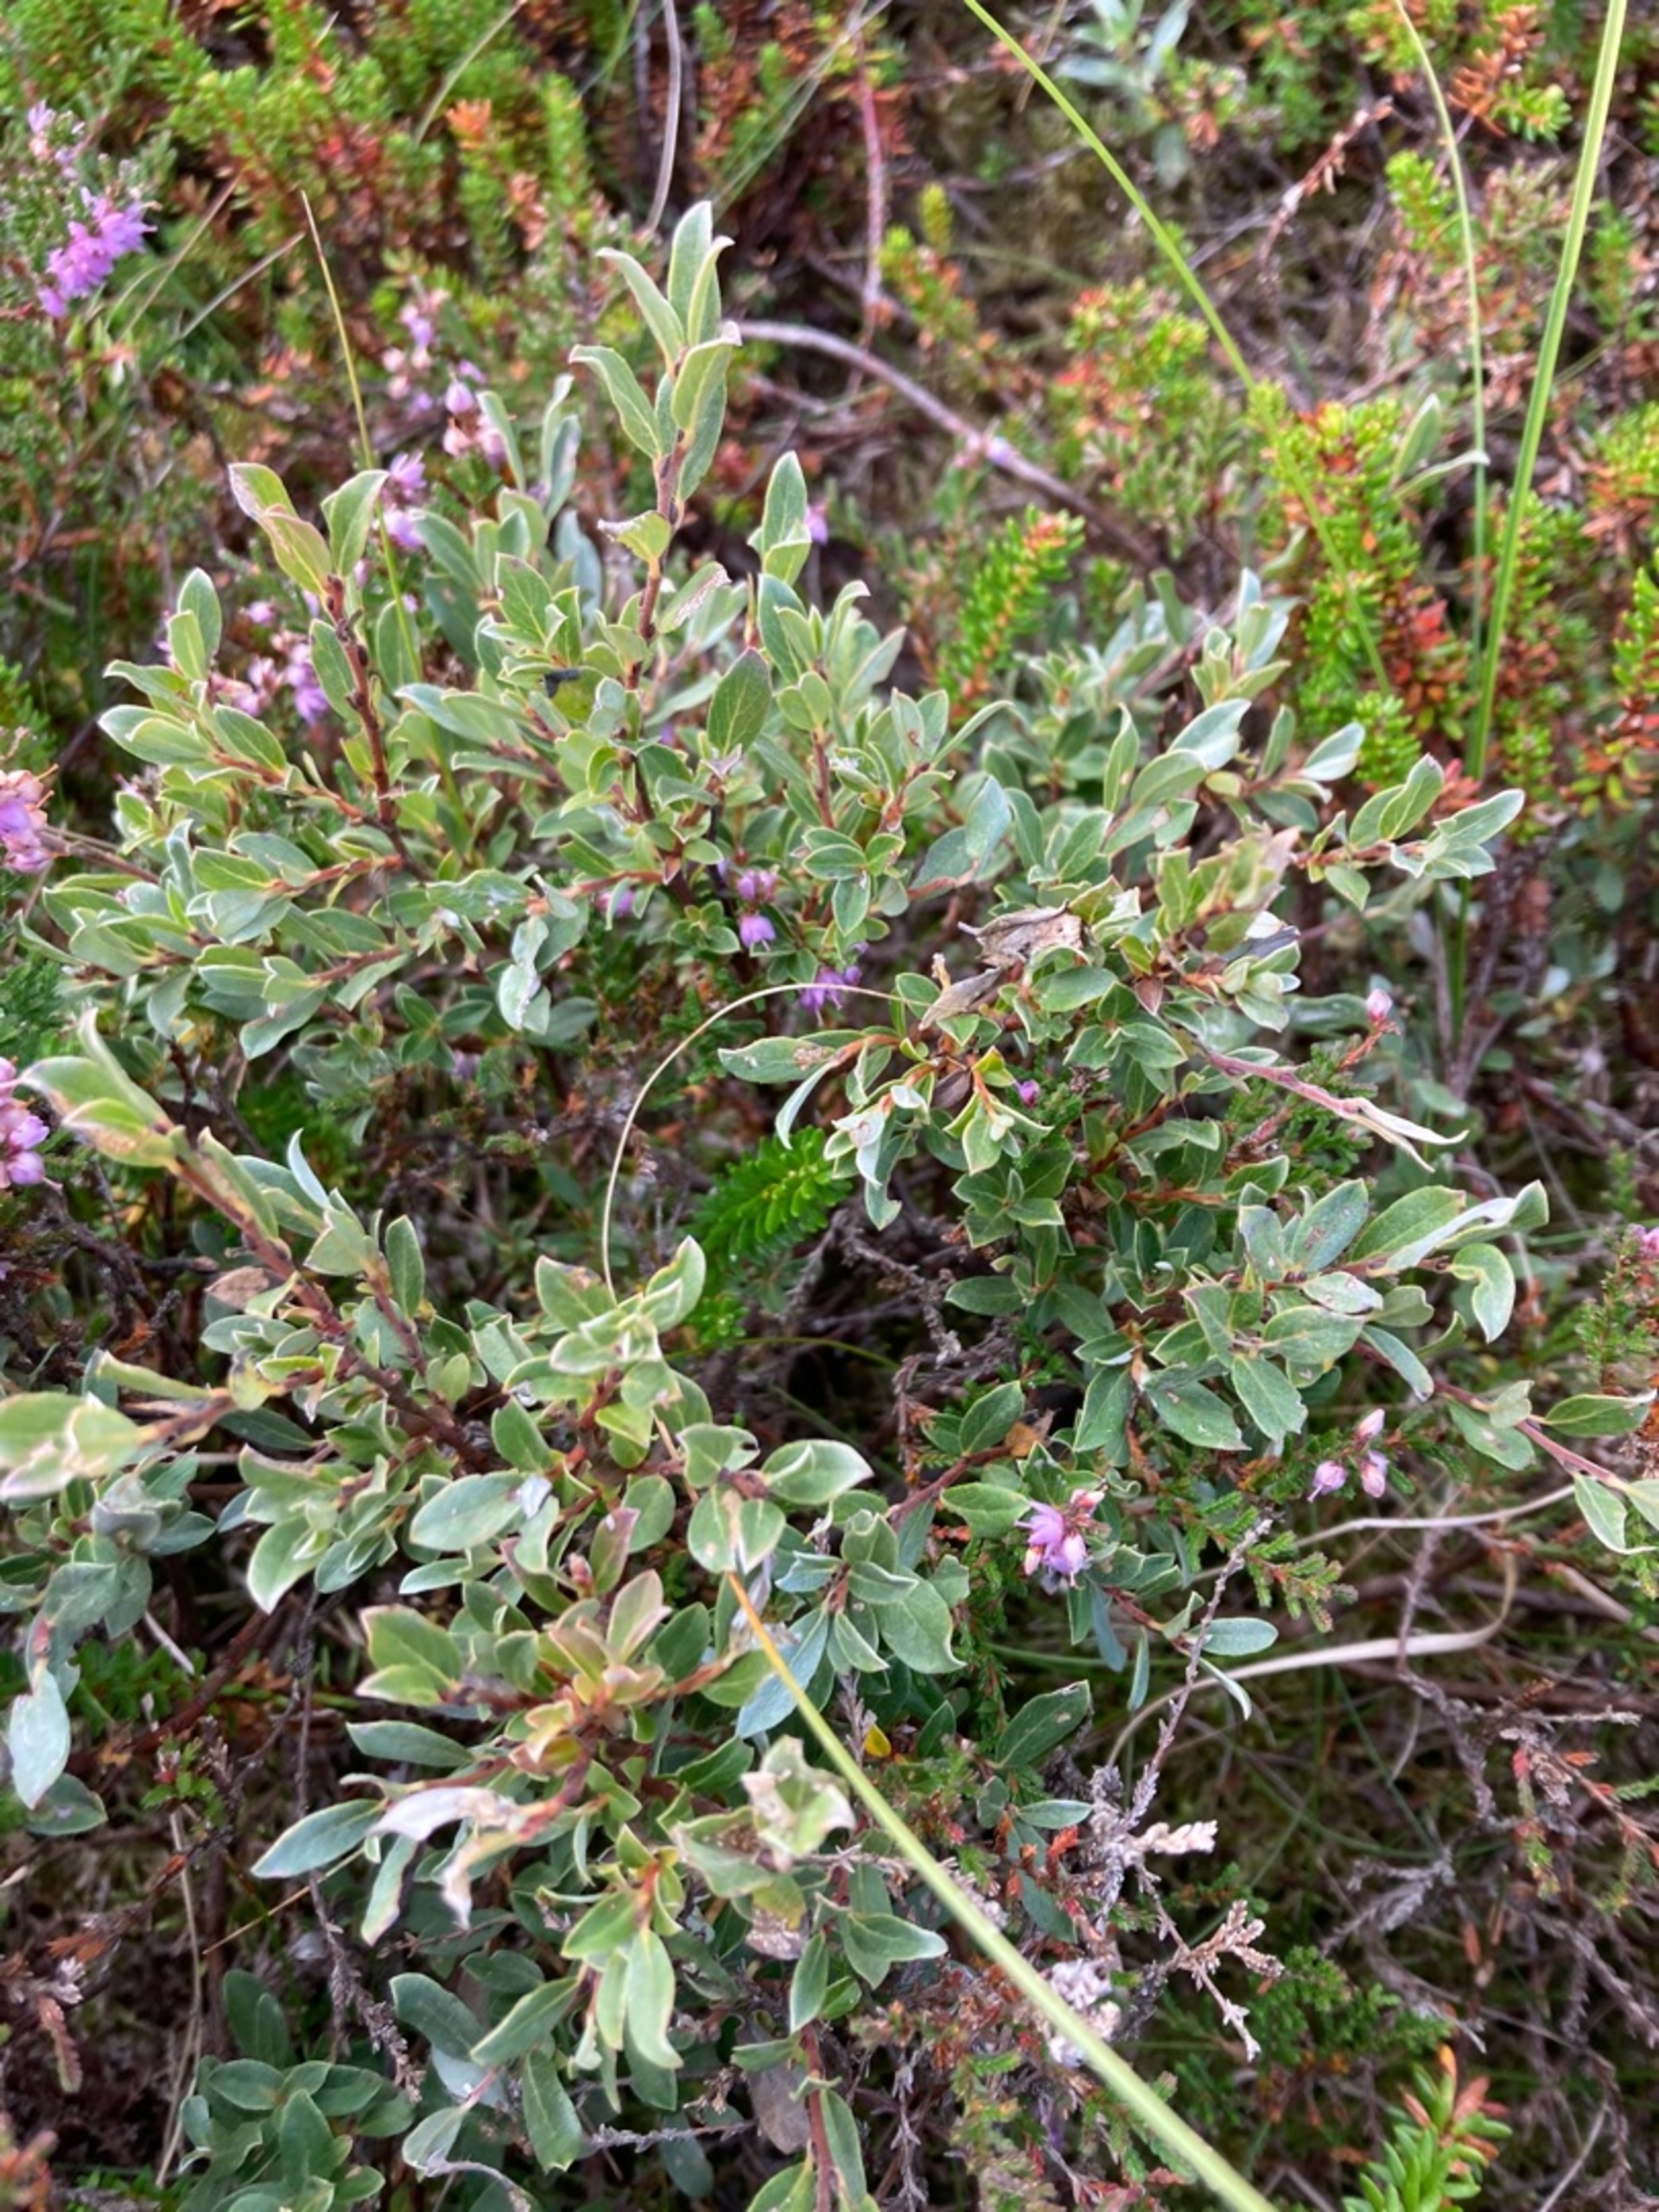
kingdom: Plantae
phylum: Tracheophyta
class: Magnoliopsida
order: Malpighiales
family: Salicaceae
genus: Salix
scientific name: Salix repens
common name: Krybende pil
